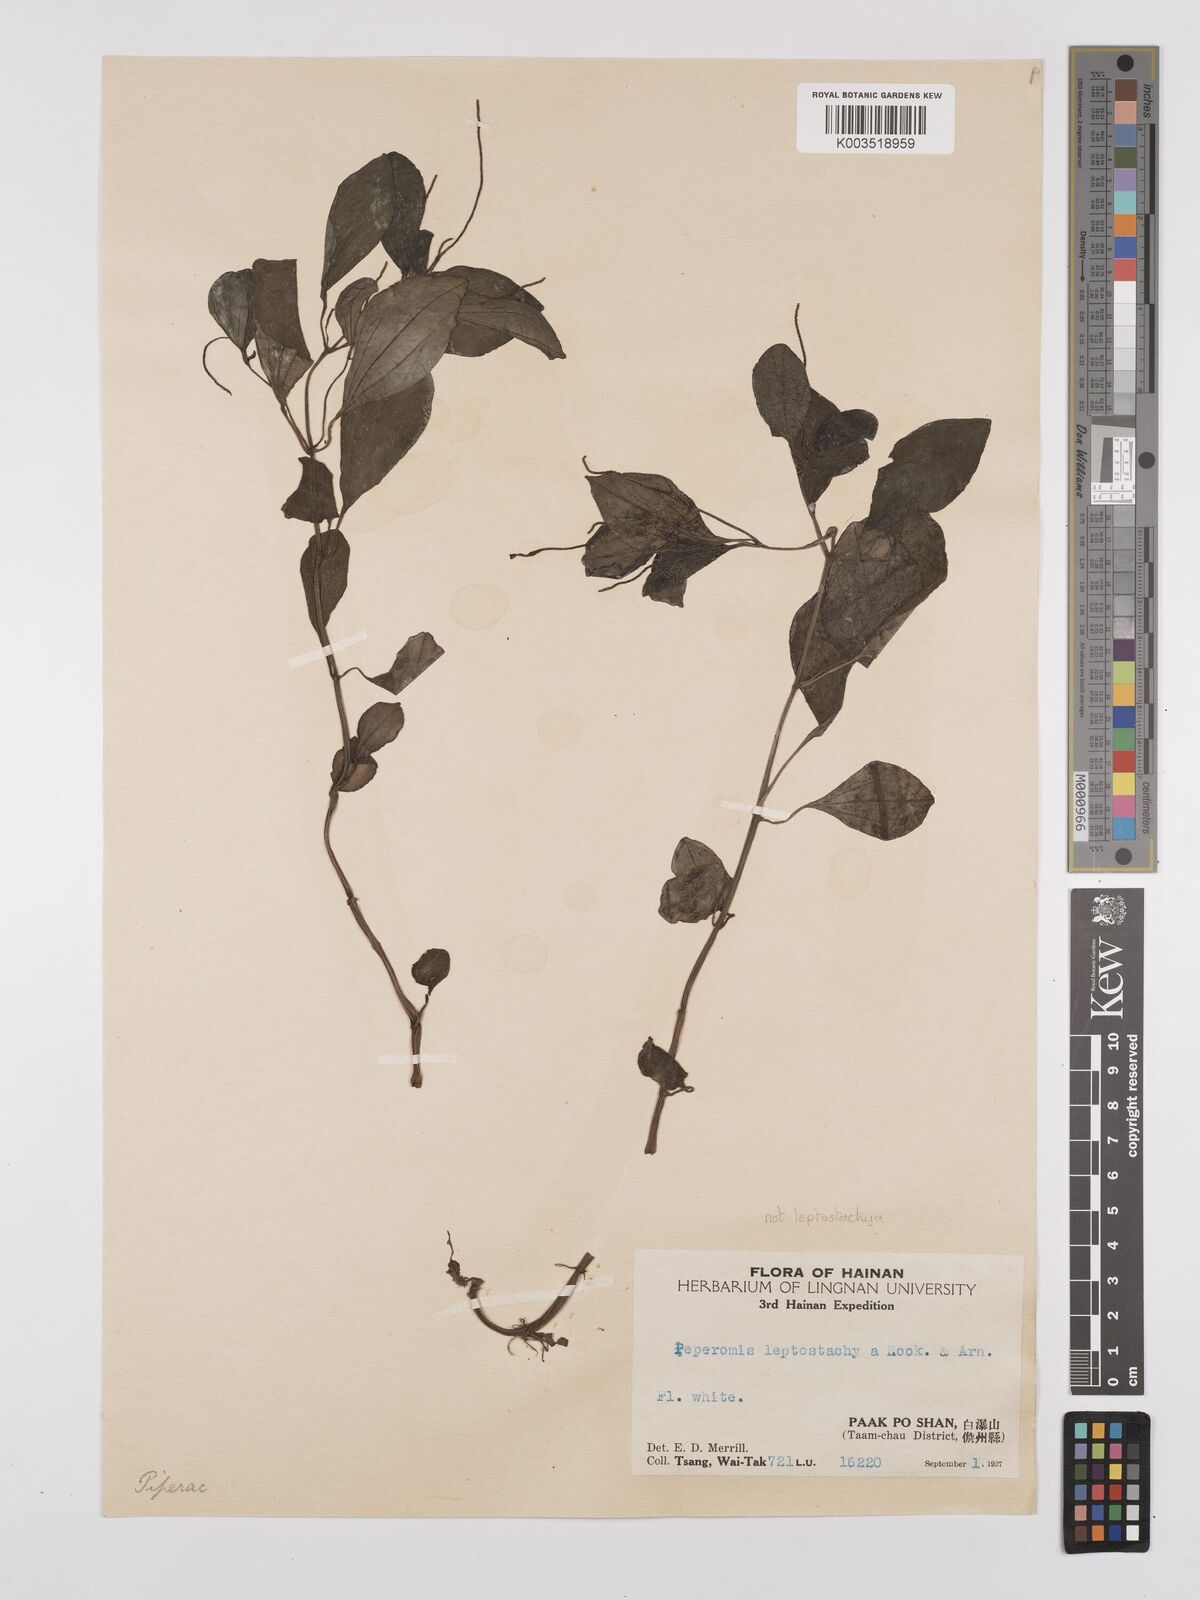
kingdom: Plantae
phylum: Tracheophyta
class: Magnoliopsida
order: Piperales
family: Piperaceae
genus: Peperomia
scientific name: Peperomia leptostachya
